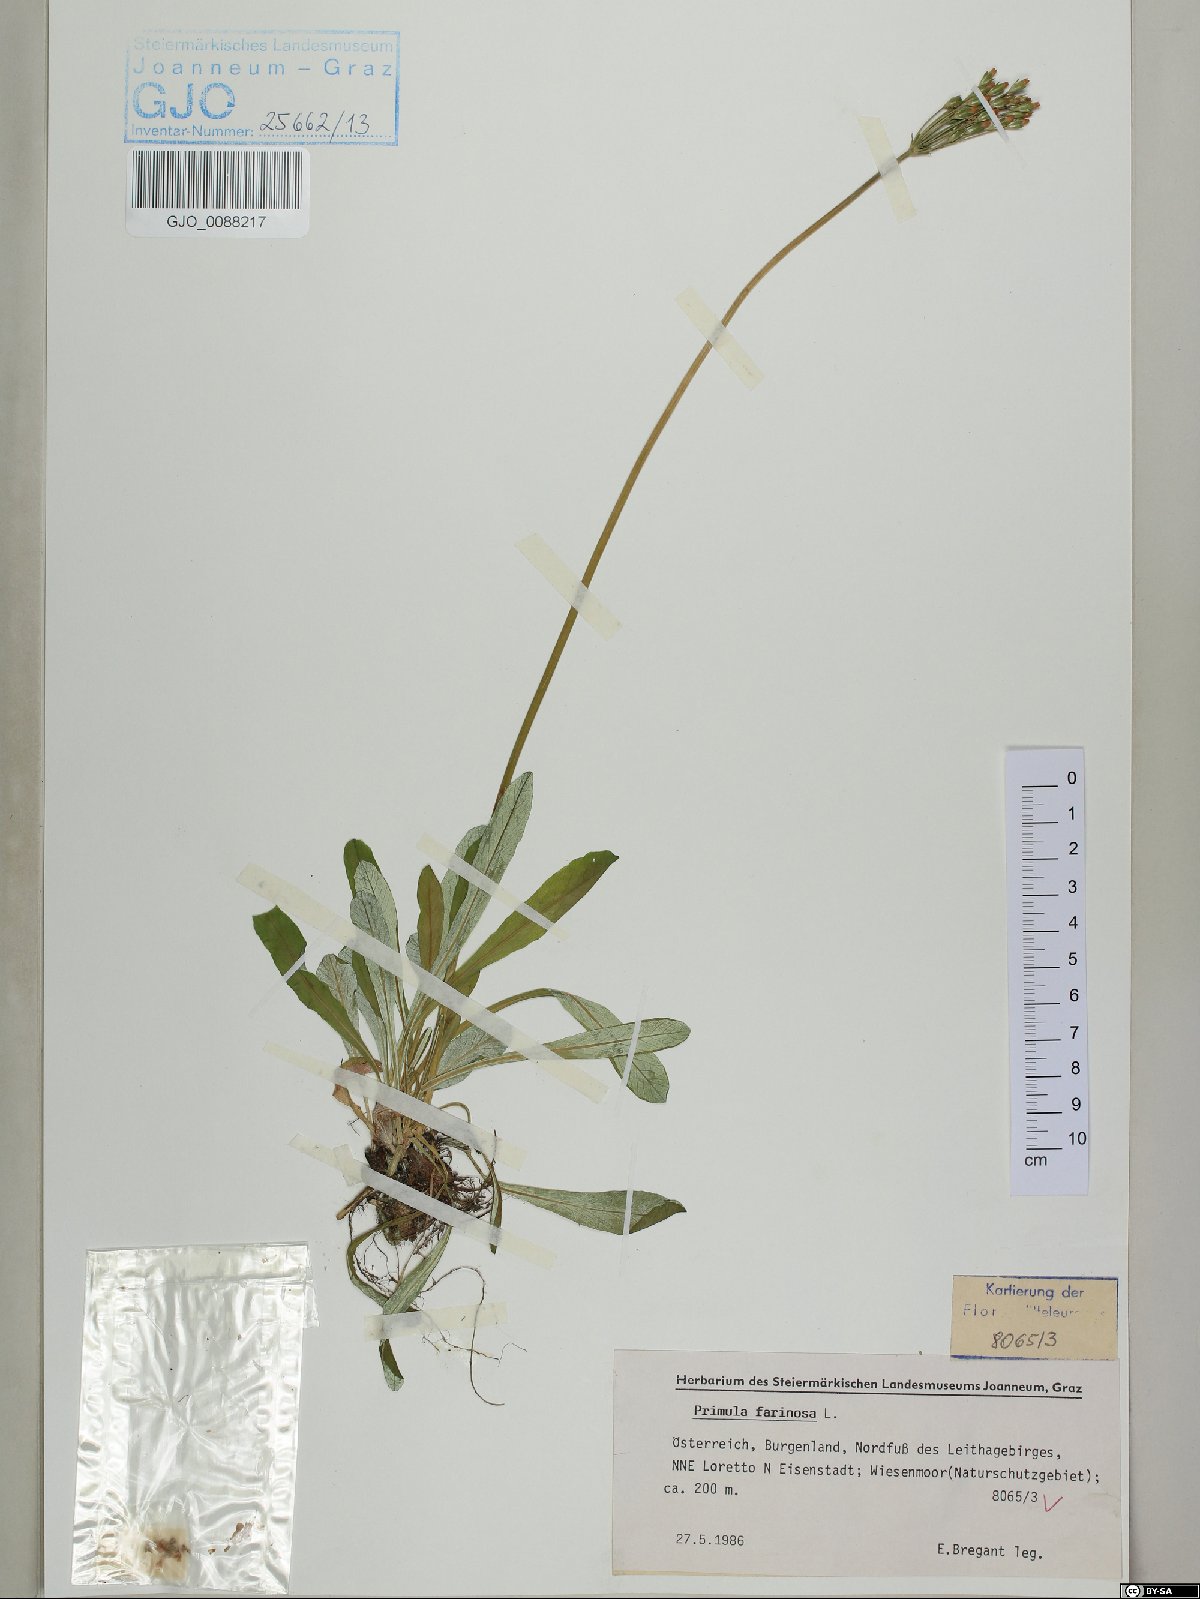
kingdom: Plantae
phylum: Tracheophyta
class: Magnoliopsida
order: Ericales
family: Primulaceae
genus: Primula
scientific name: Primula farinosa
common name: Bird's-eye primrose
